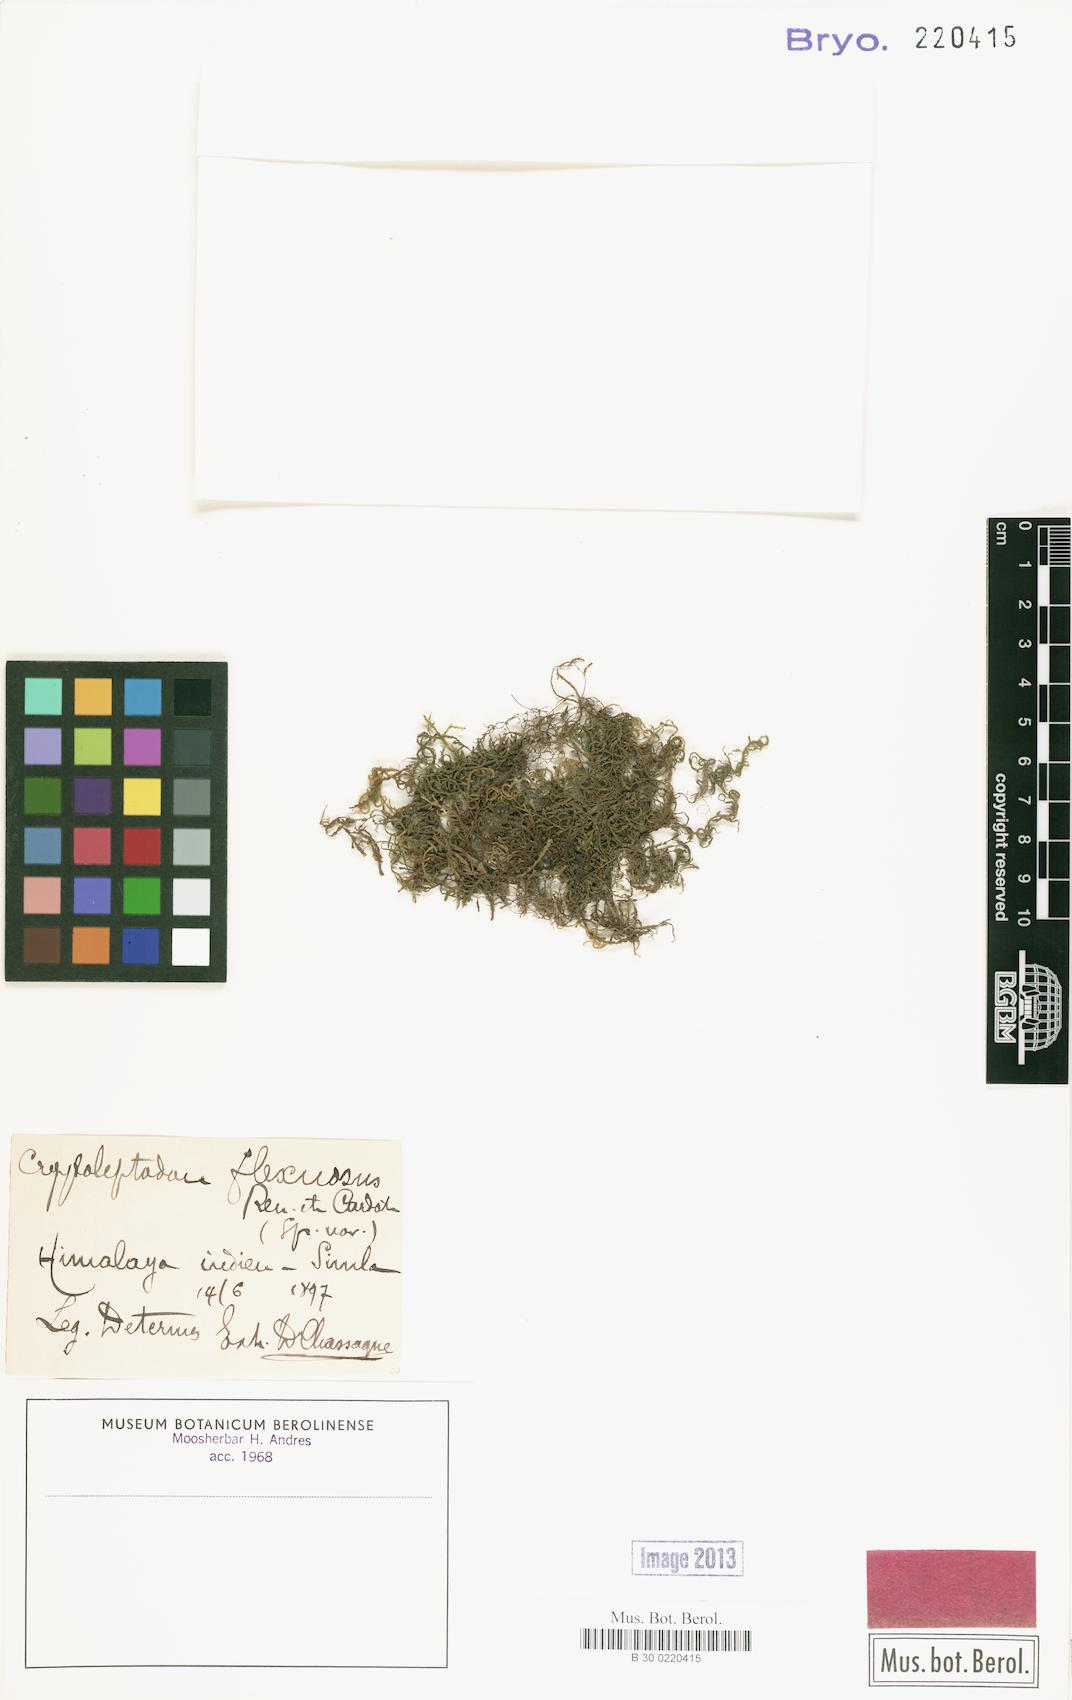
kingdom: Plantae
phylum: Bryophyta
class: Bryopsida
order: Hypnales
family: Neckeraceae
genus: Leptodon
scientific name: Leptodon pluvinii
